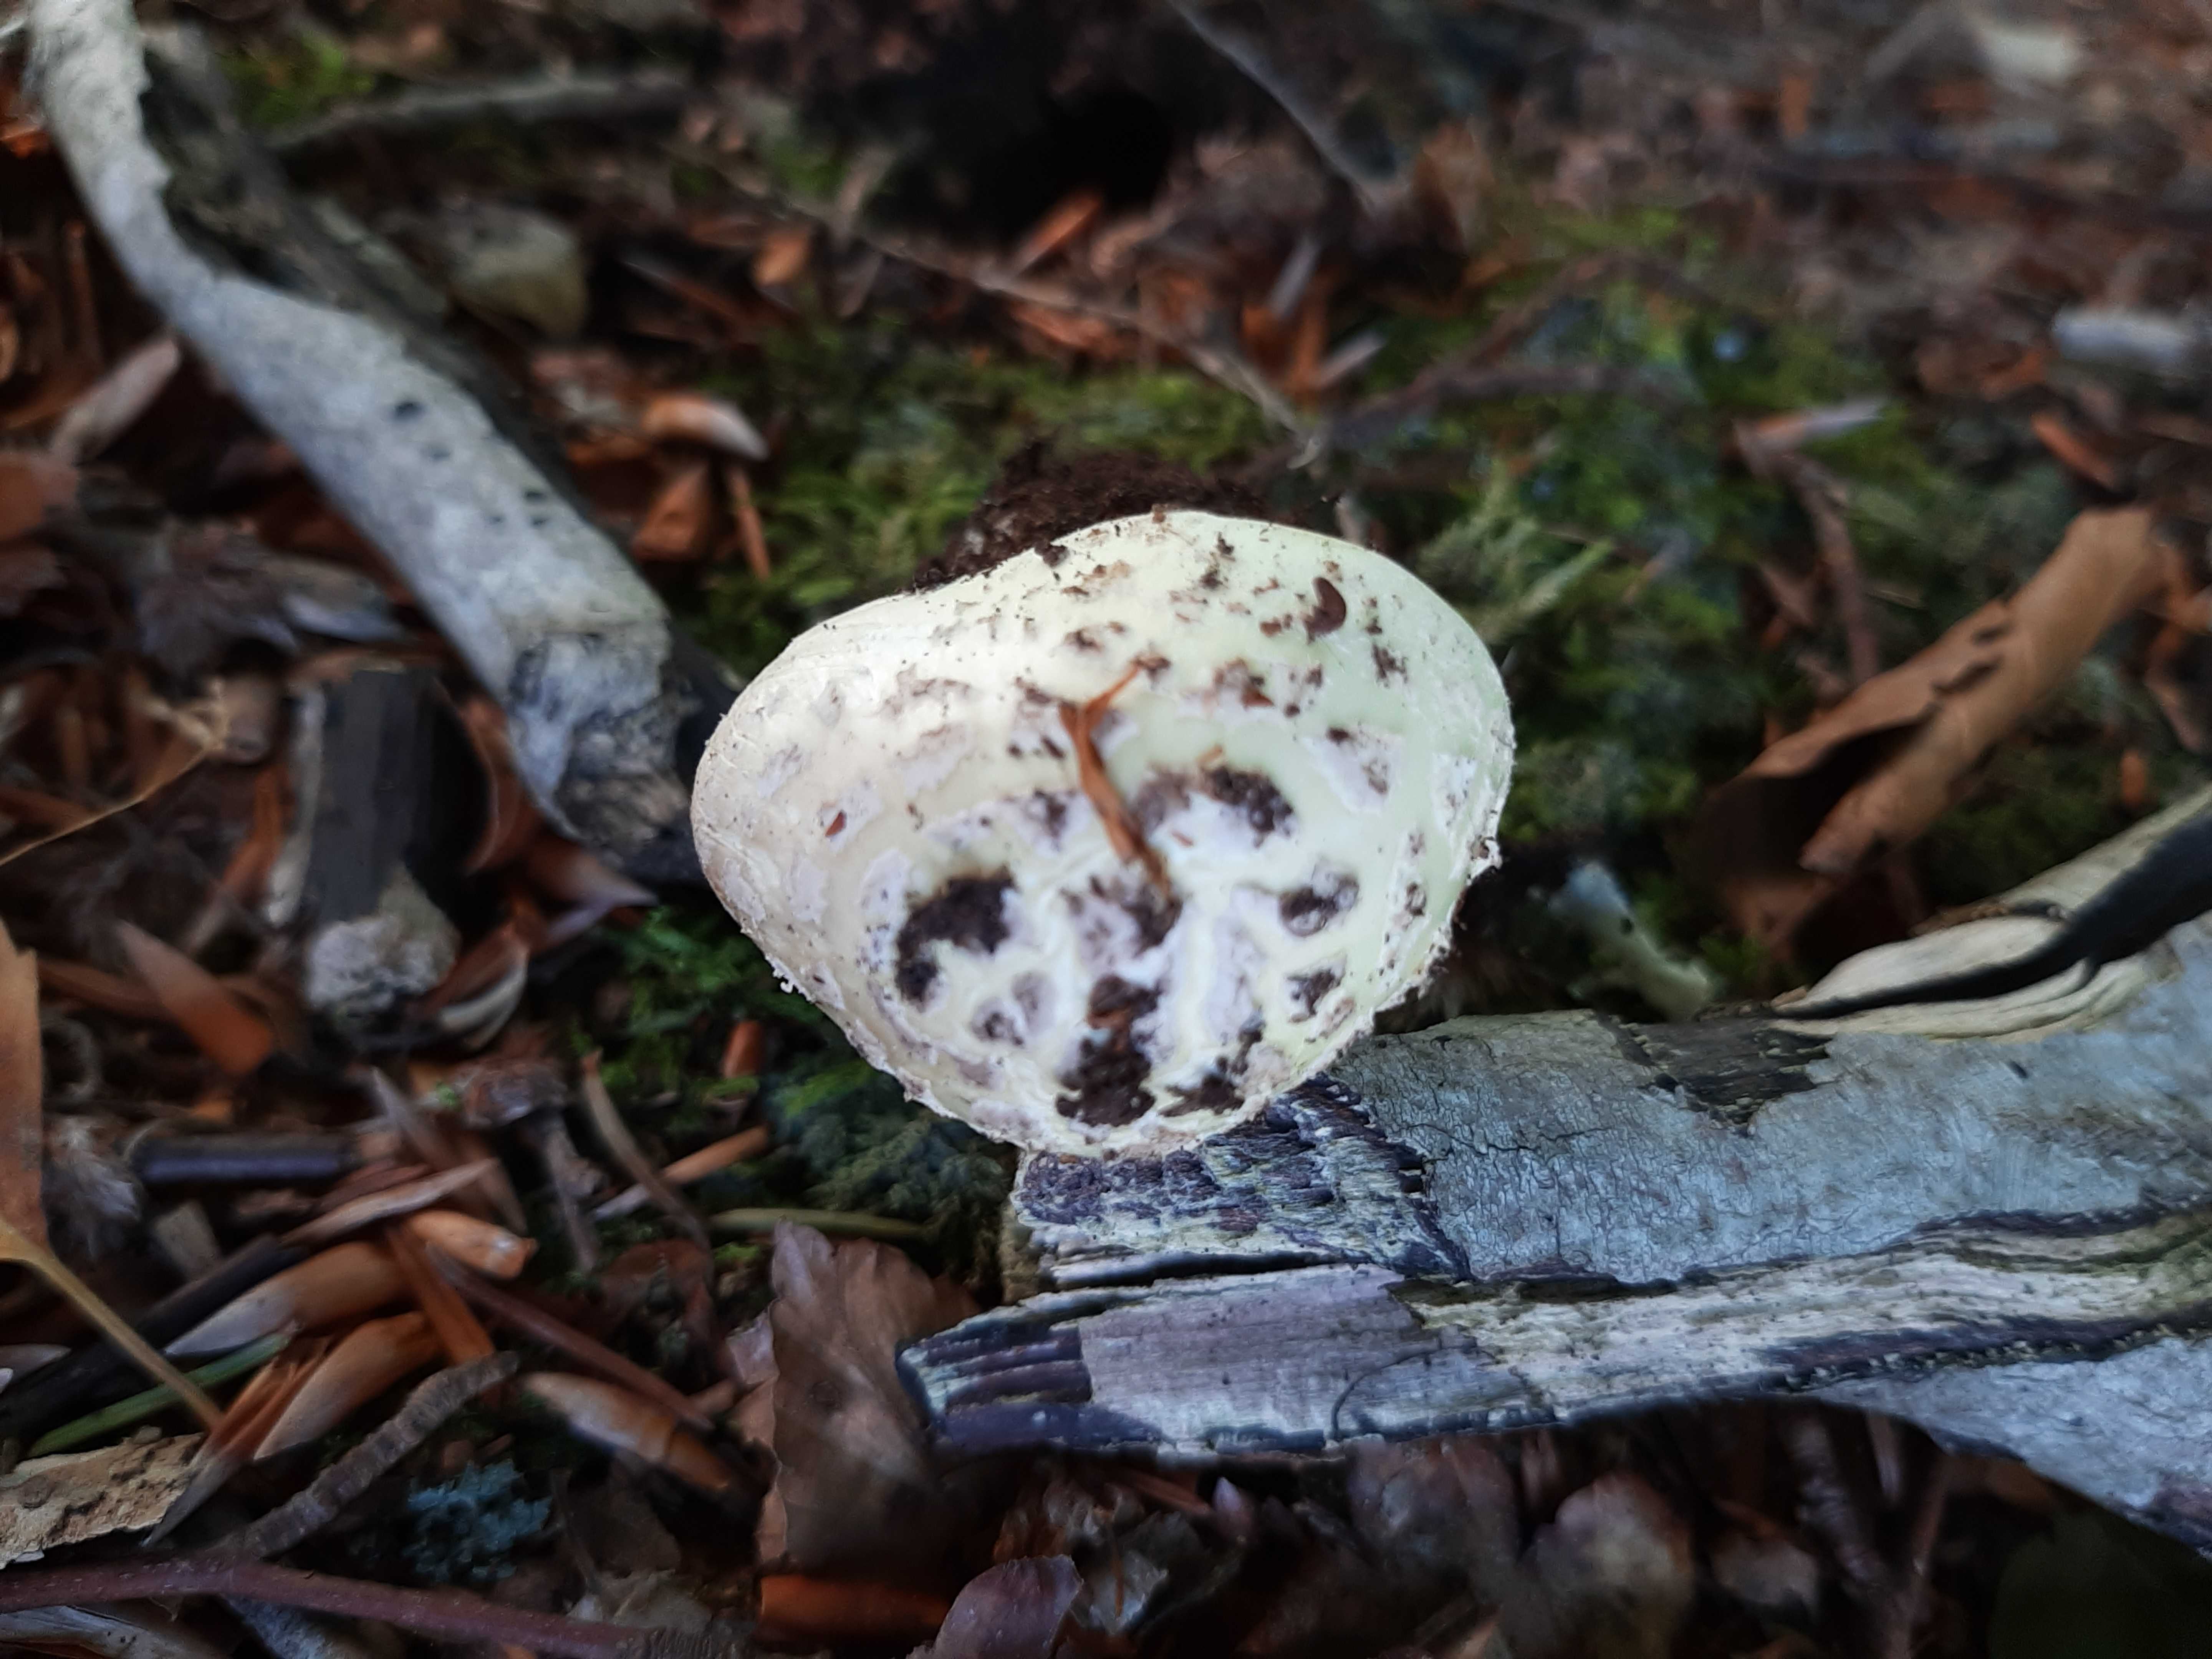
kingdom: Fungi
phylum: Basidiomycota
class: Agaricomycetes
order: Agaricales
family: Amanitaceae
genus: Amanita
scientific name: Amanita citrina
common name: kugleknoldet fluesvamp
